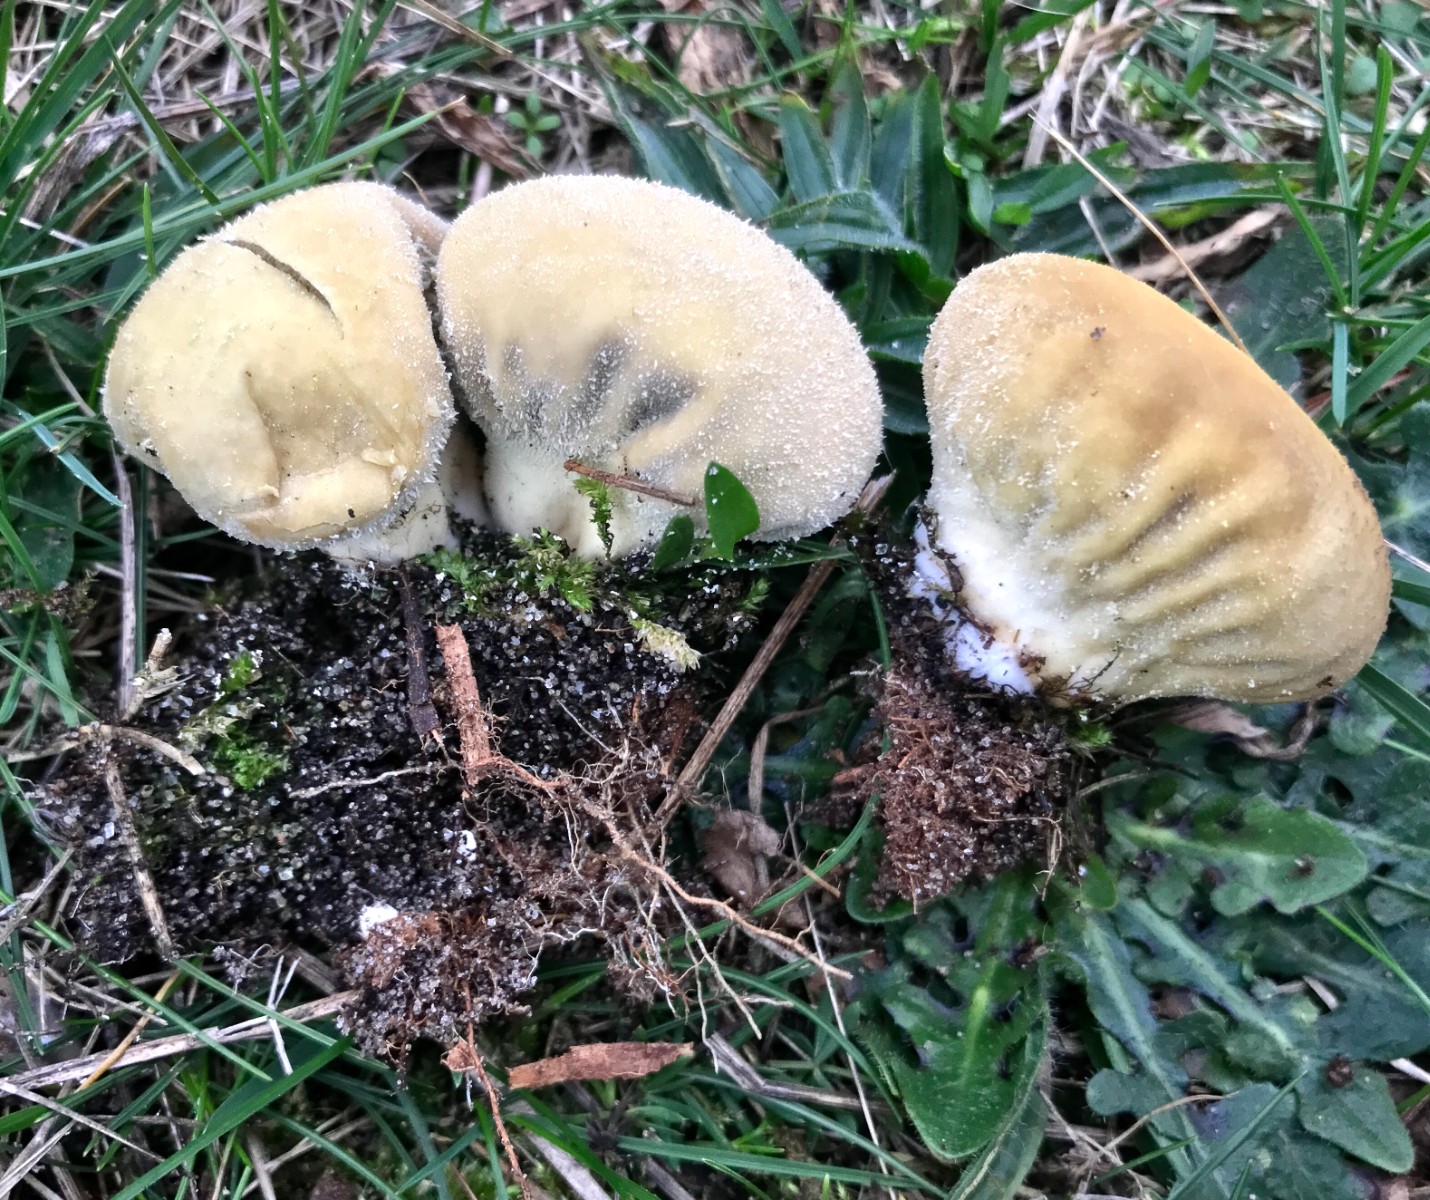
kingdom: Fungi
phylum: Basidiomycota
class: Agaricomycetes
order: Agaricales
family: Lycoperdaceae
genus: Lycoperdon
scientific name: Lycoperdon pratense
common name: flad støvbold
